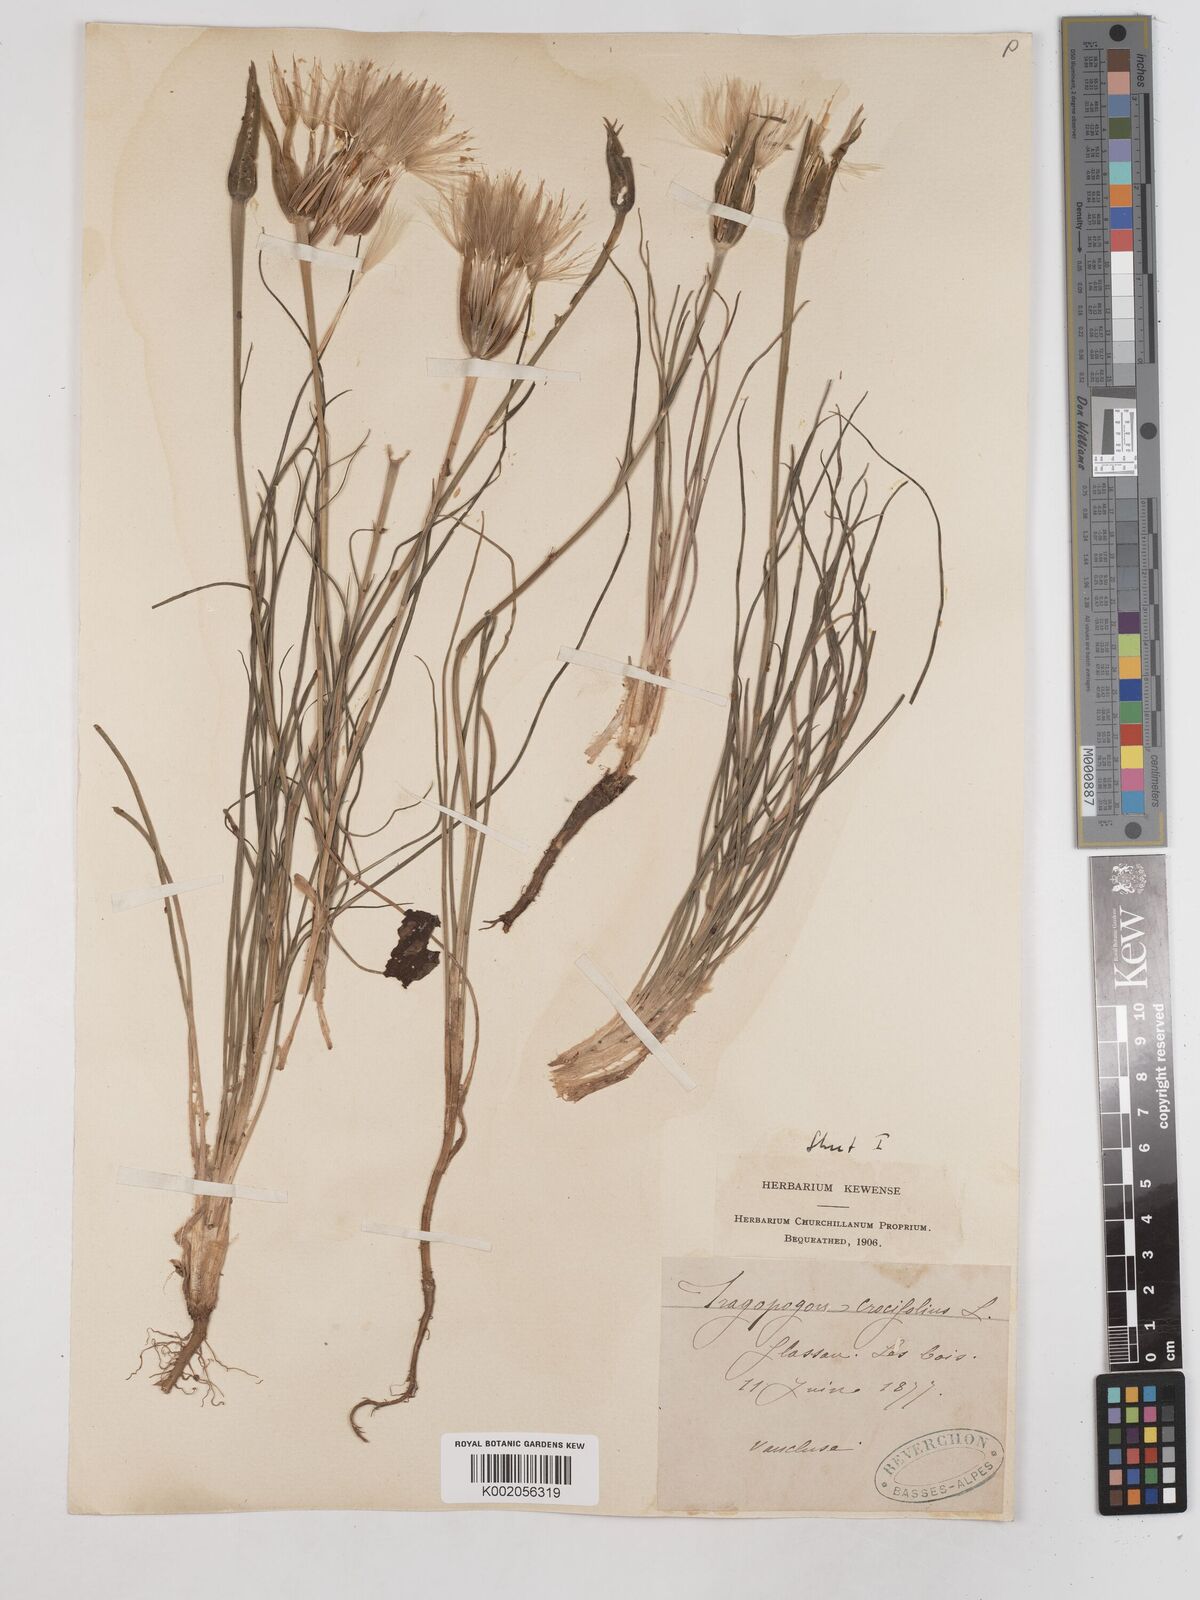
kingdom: Plantae
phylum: Tracheophyta
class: Magnoliopsida
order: Asterales
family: Asteraceae
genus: Tragopogon
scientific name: Tragopogon crocifolius
